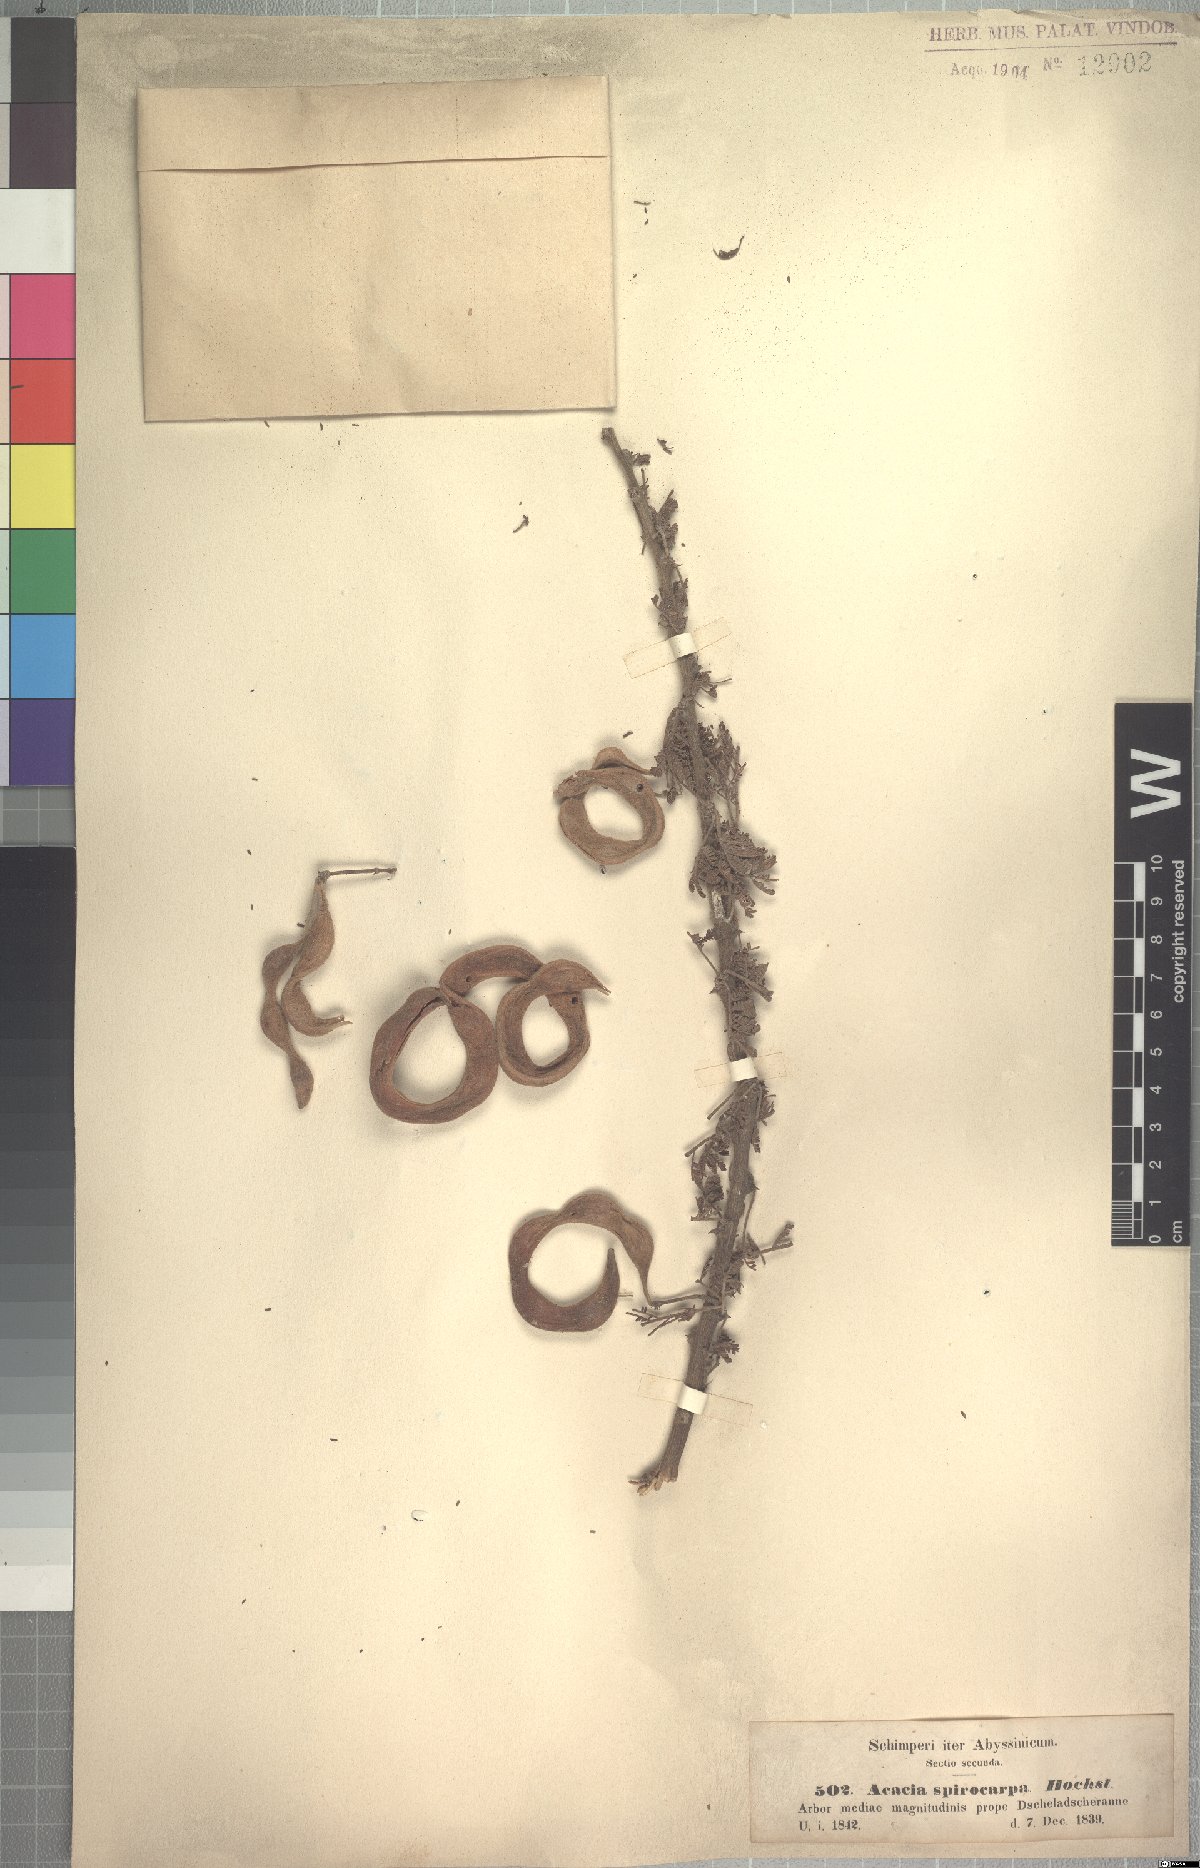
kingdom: Plantae
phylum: Tracheophyta
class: Magnoliopsida
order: Fabales
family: Fabaceae
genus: Vachellia
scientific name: Vachellia tortilis
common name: Umbrella thorn acacia
